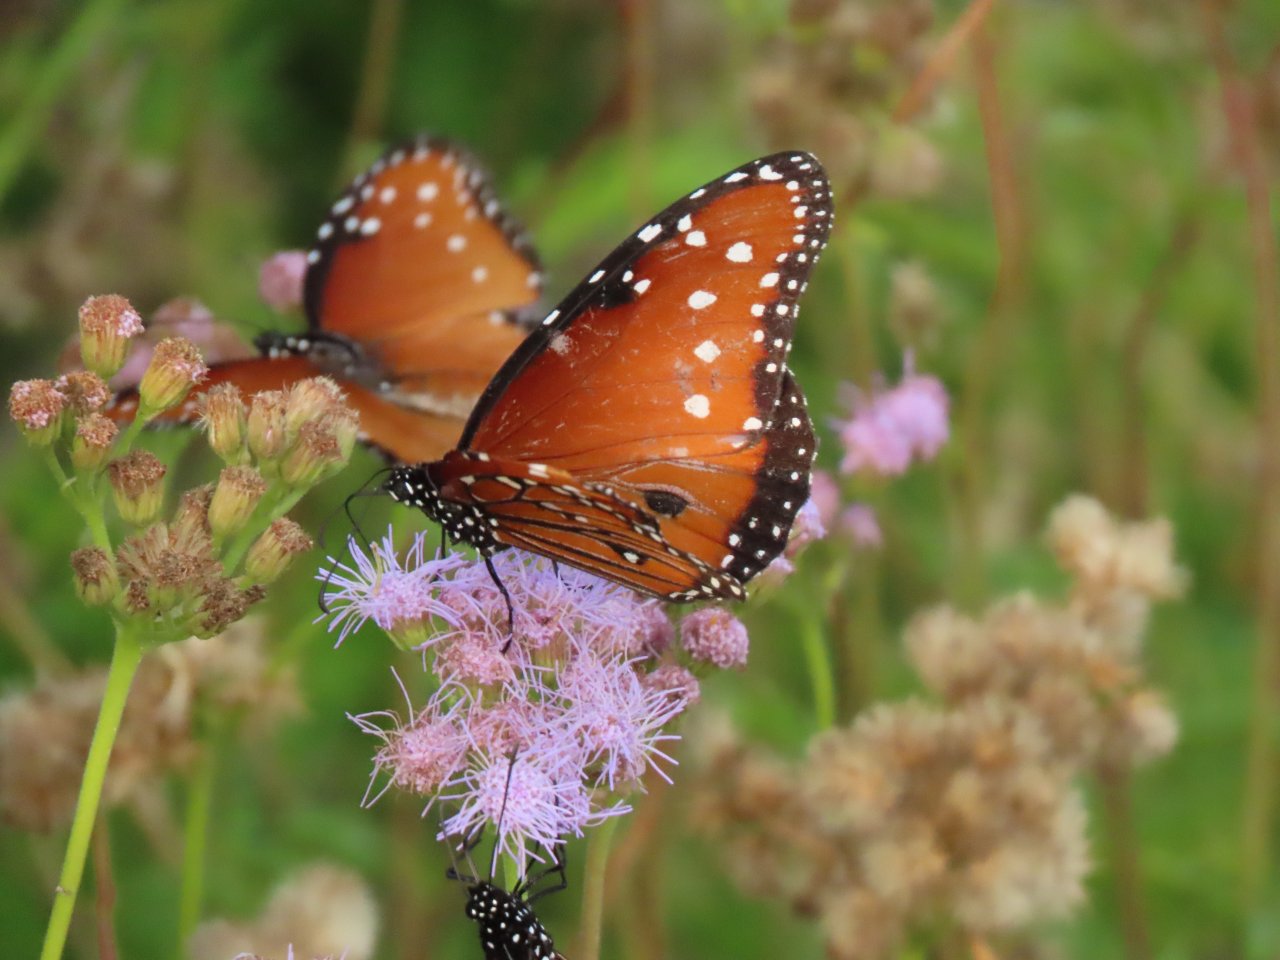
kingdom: Animalia
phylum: Arthropoda
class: Insecta
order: Lepidoptera
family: Nymphalidae
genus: Danaus
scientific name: Danaus gilippus
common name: Queen
